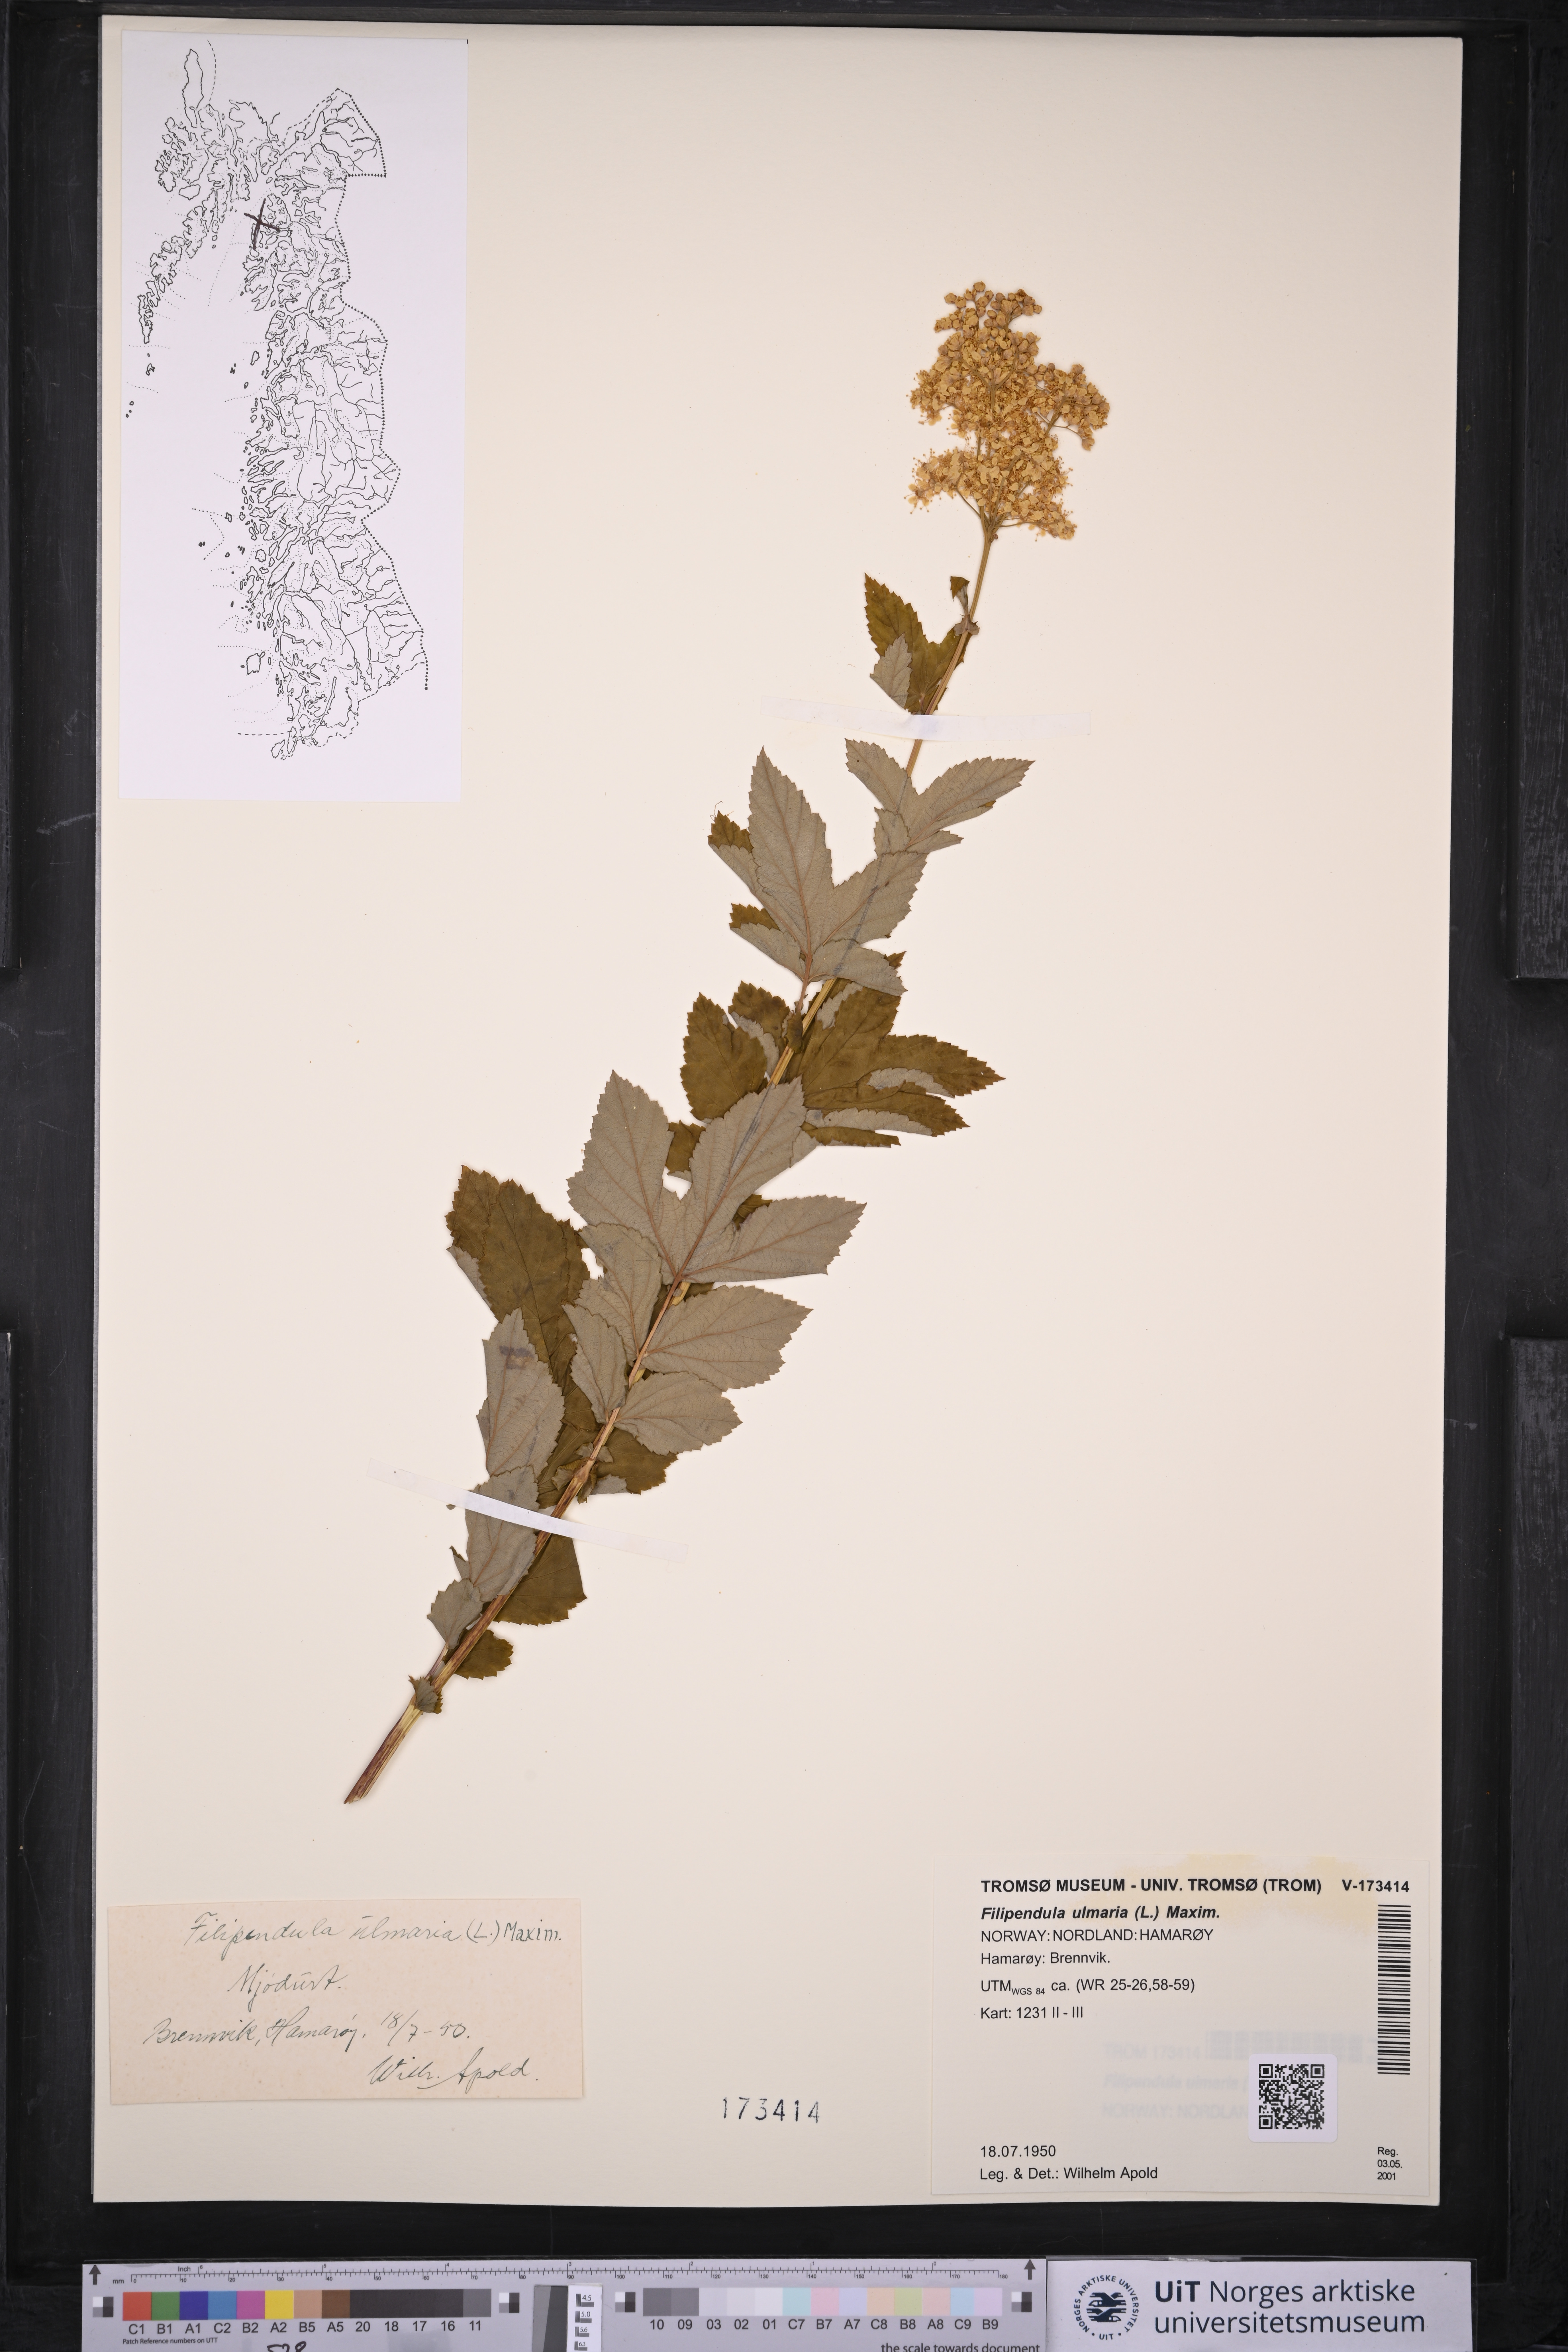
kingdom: Plantae
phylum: Tracheophyta
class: Magnoliopsida
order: Rosales
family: Rosaceae
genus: Filipendula
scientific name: Filipendula ulmaria
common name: Meadowsweet
